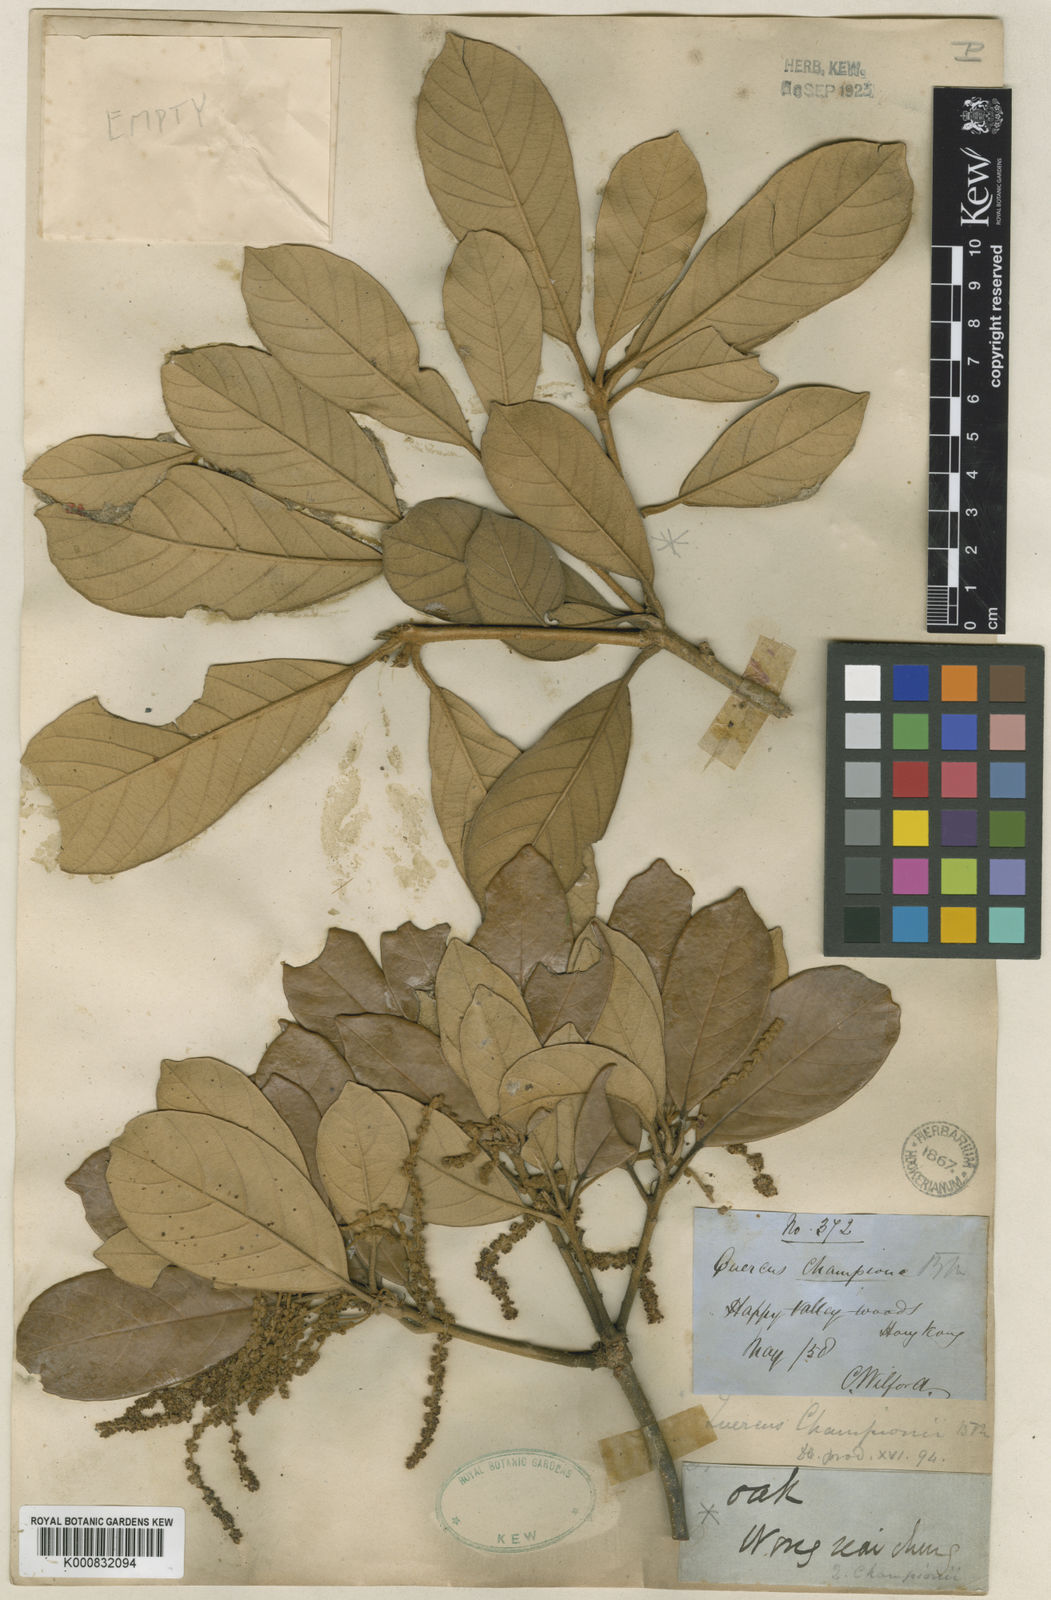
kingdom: Plantae
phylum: Tracheophyta
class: Magnoliopsida
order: Fagales
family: Fagaceae
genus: Quercus
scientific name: Quercus championii
